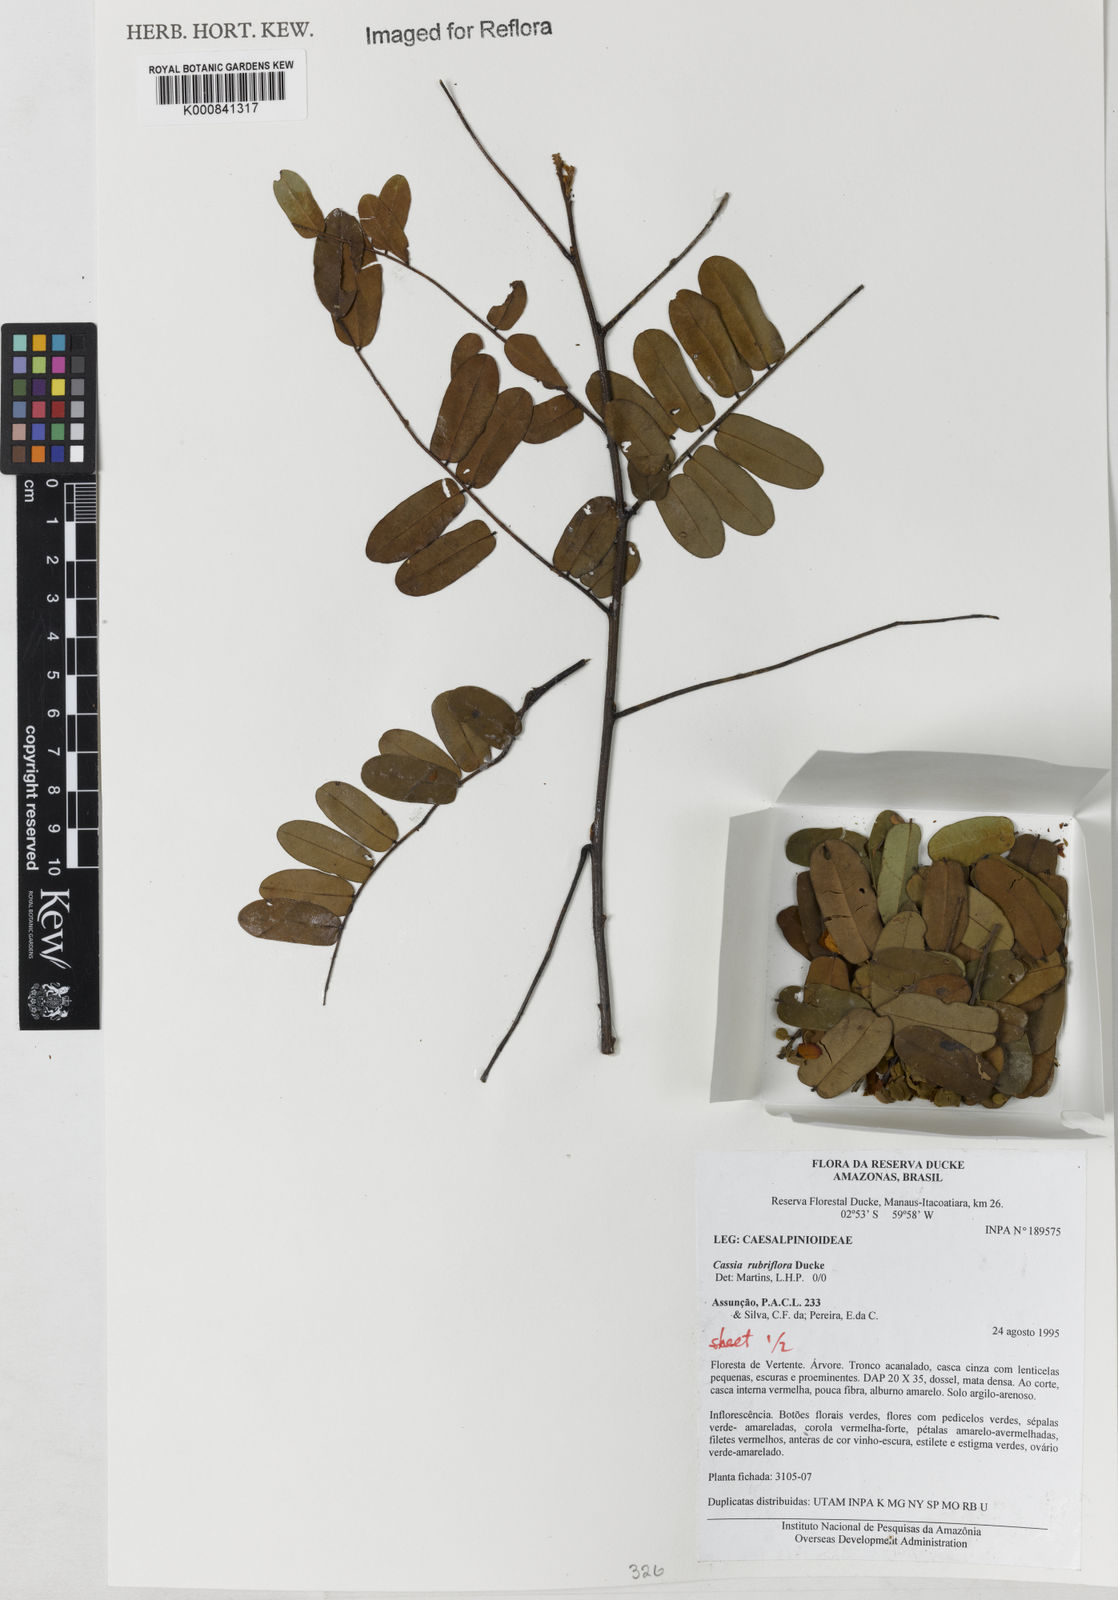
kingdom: Plantae
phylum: Tracheophyta
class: Magnoliopsida
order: Fabales
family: Fabaceae
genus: Cassia
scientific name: Cassia rubriflora
